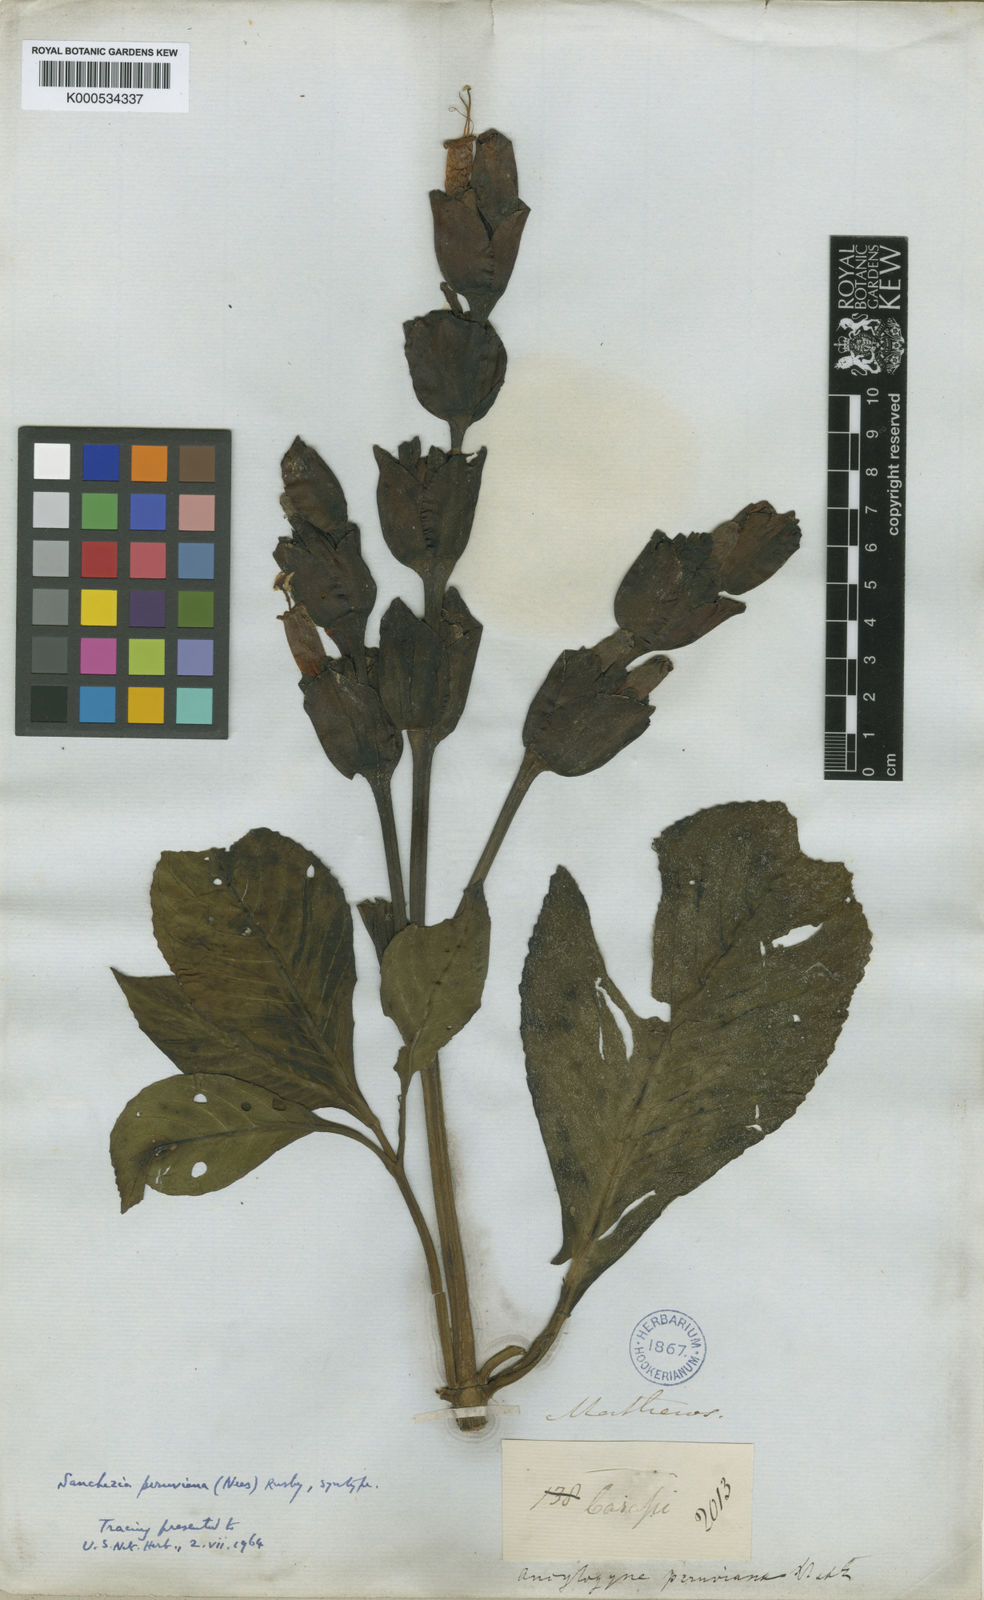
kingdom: Plantae
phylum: Tracheophyta
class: Magnoliopsida
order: Lamiales
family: Acanthaceae
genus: Sanchezia
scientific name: Sanchezia oblonga
